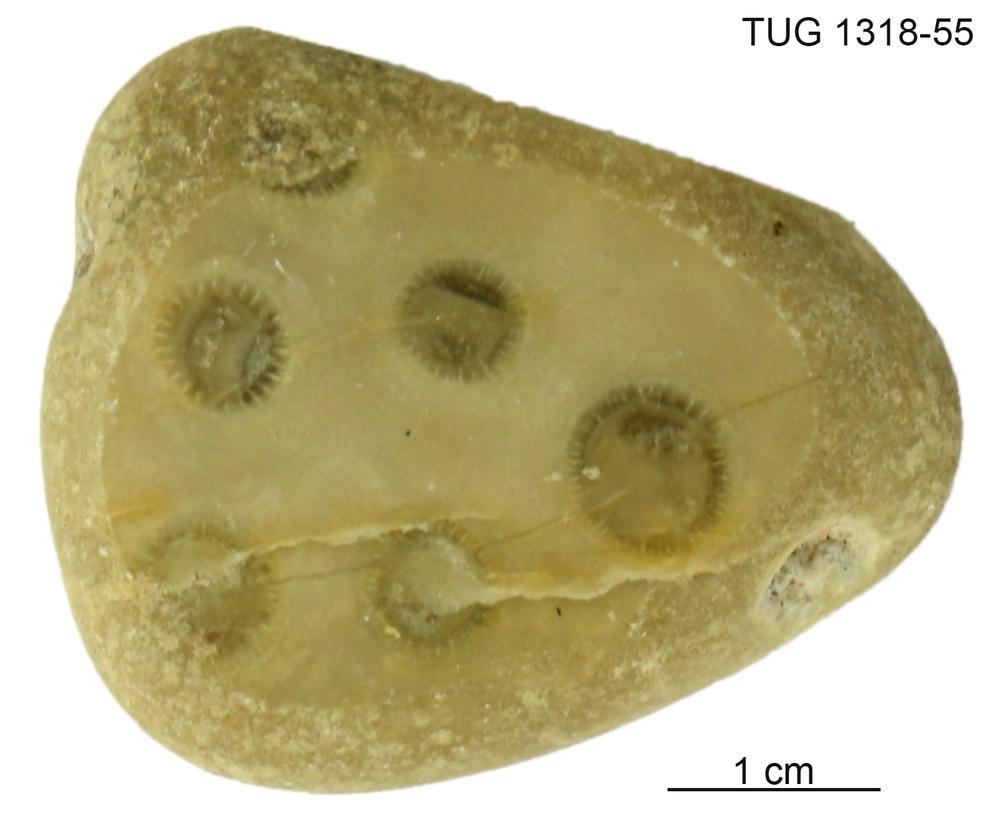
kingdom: Plantae
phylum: Chlorophyta
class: Ulvophyceae
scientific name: Ulvophyceae
